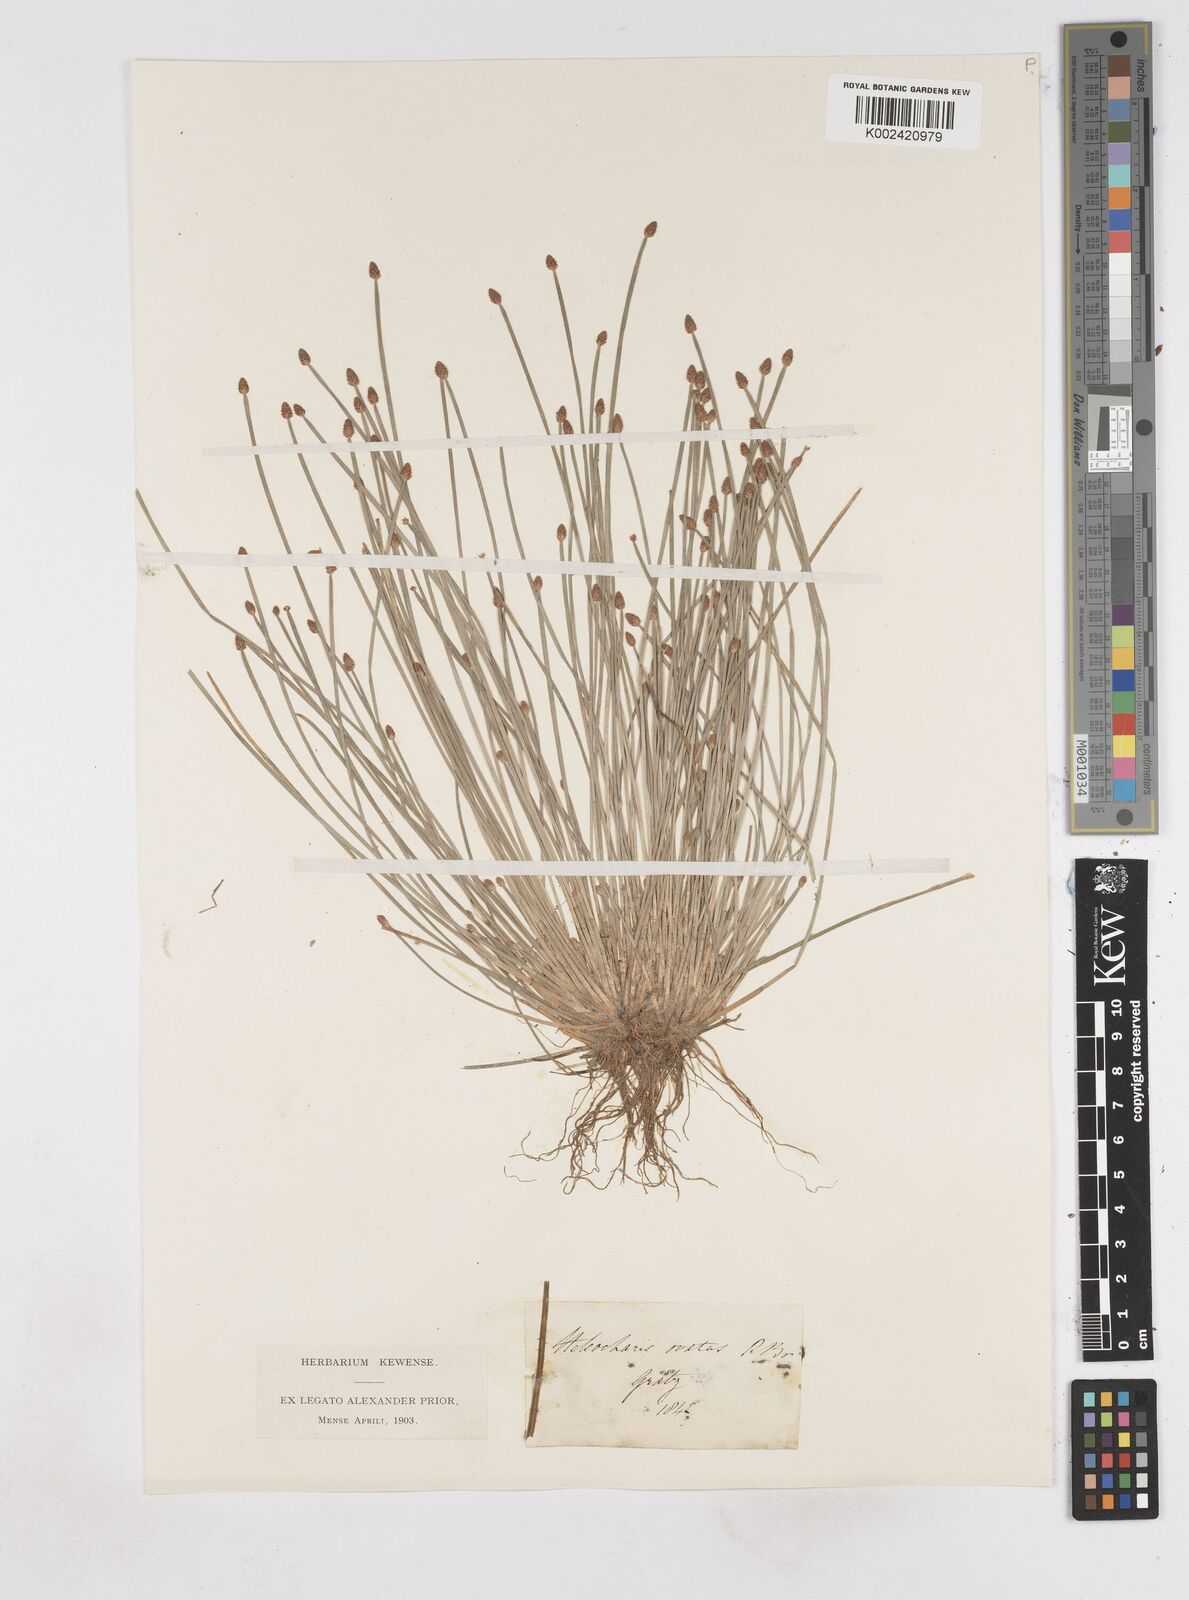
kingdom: Plantae
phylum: Tracheophyta
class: Liliopsida
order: Poales
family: Cyperaceae
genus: Eleocharis
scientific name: Eleocharis ovata
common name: Oval spike-rush
